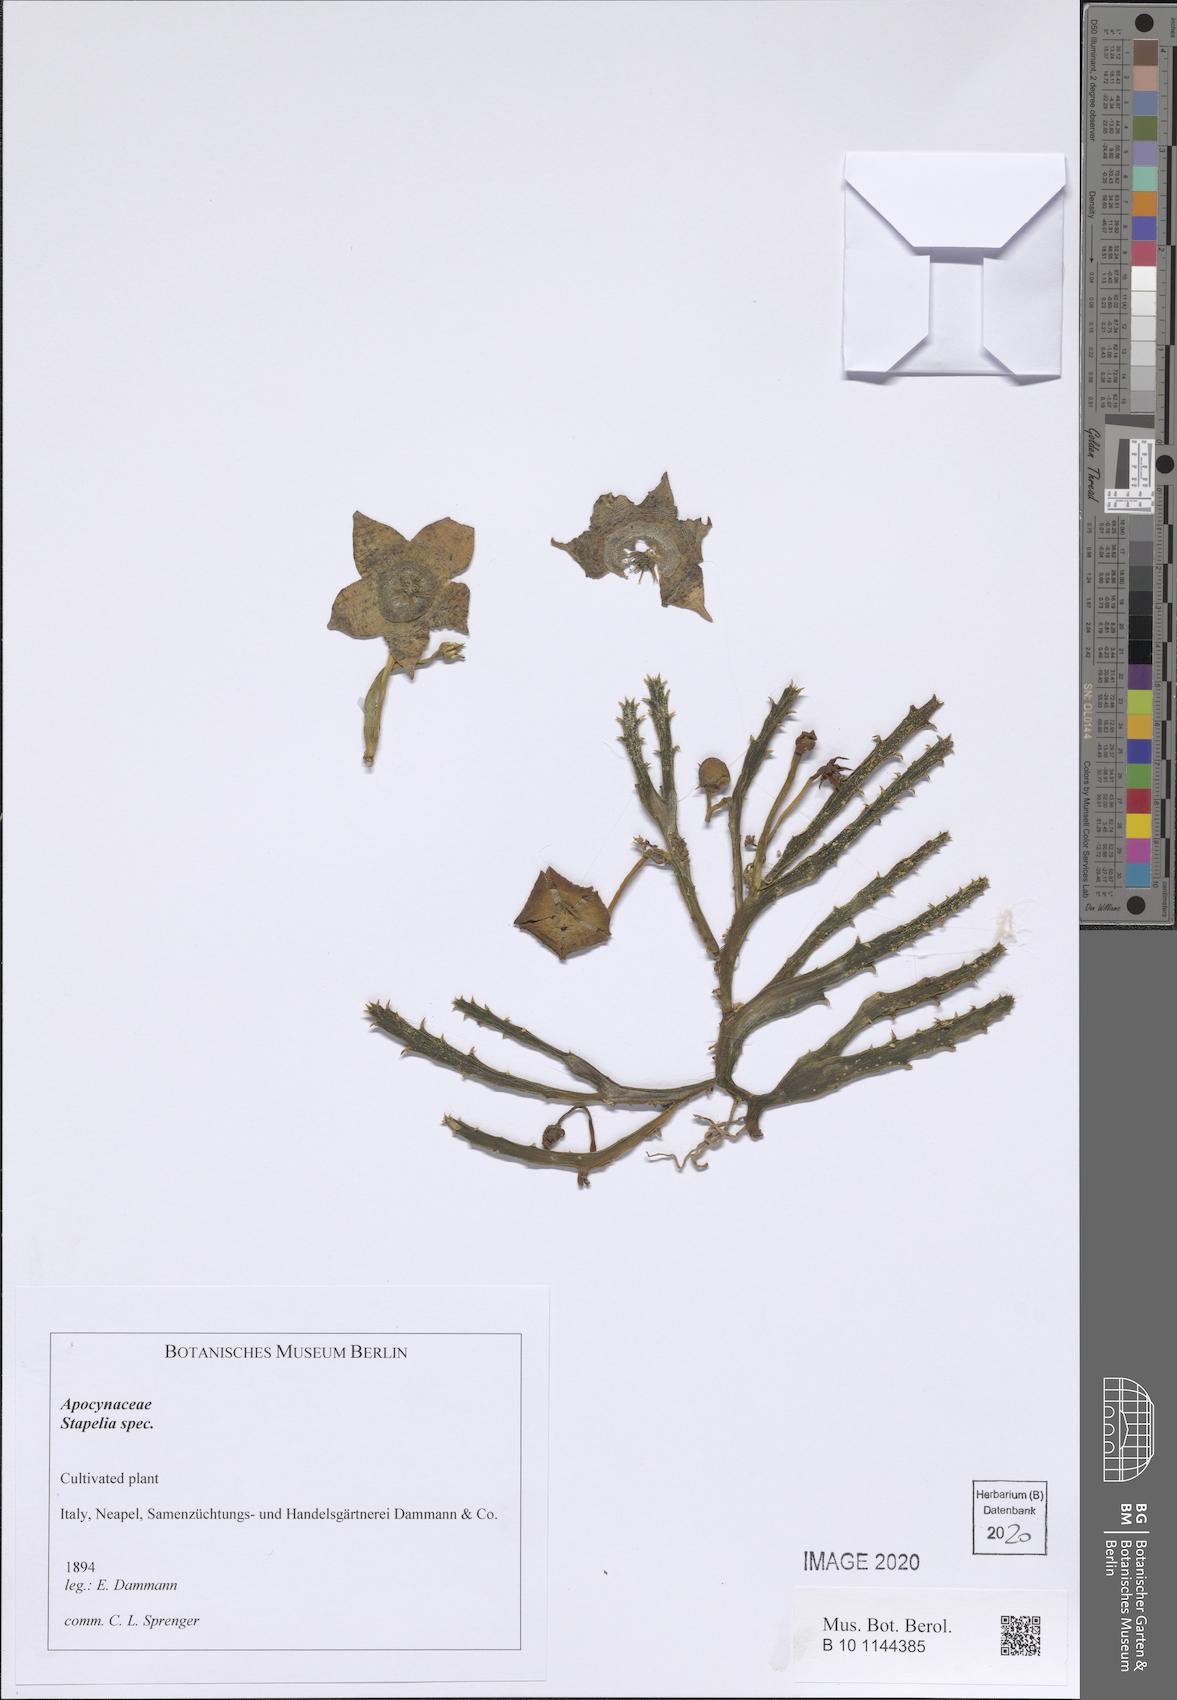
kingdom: Plantae
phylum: Tracheophyta
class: Magnoliopsida
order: Gentianales
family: Apocynaceae
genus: Stapelia
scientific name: Stapelia
